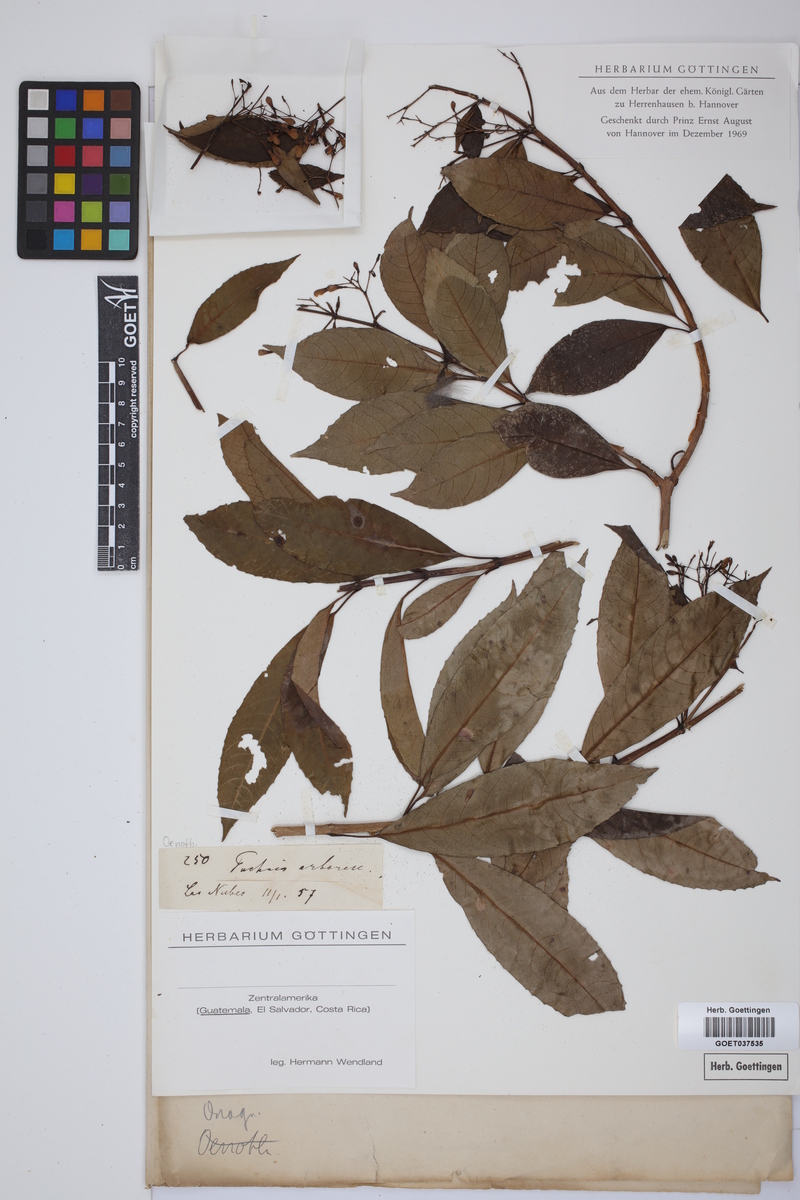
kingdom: Plantae
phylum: Tracheophyta
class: Magnoliopsida
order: Myrtales
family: Onagraceae
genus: Fuchsia
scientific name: Fuchsia paniculata
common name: Shrubby fuchsia
